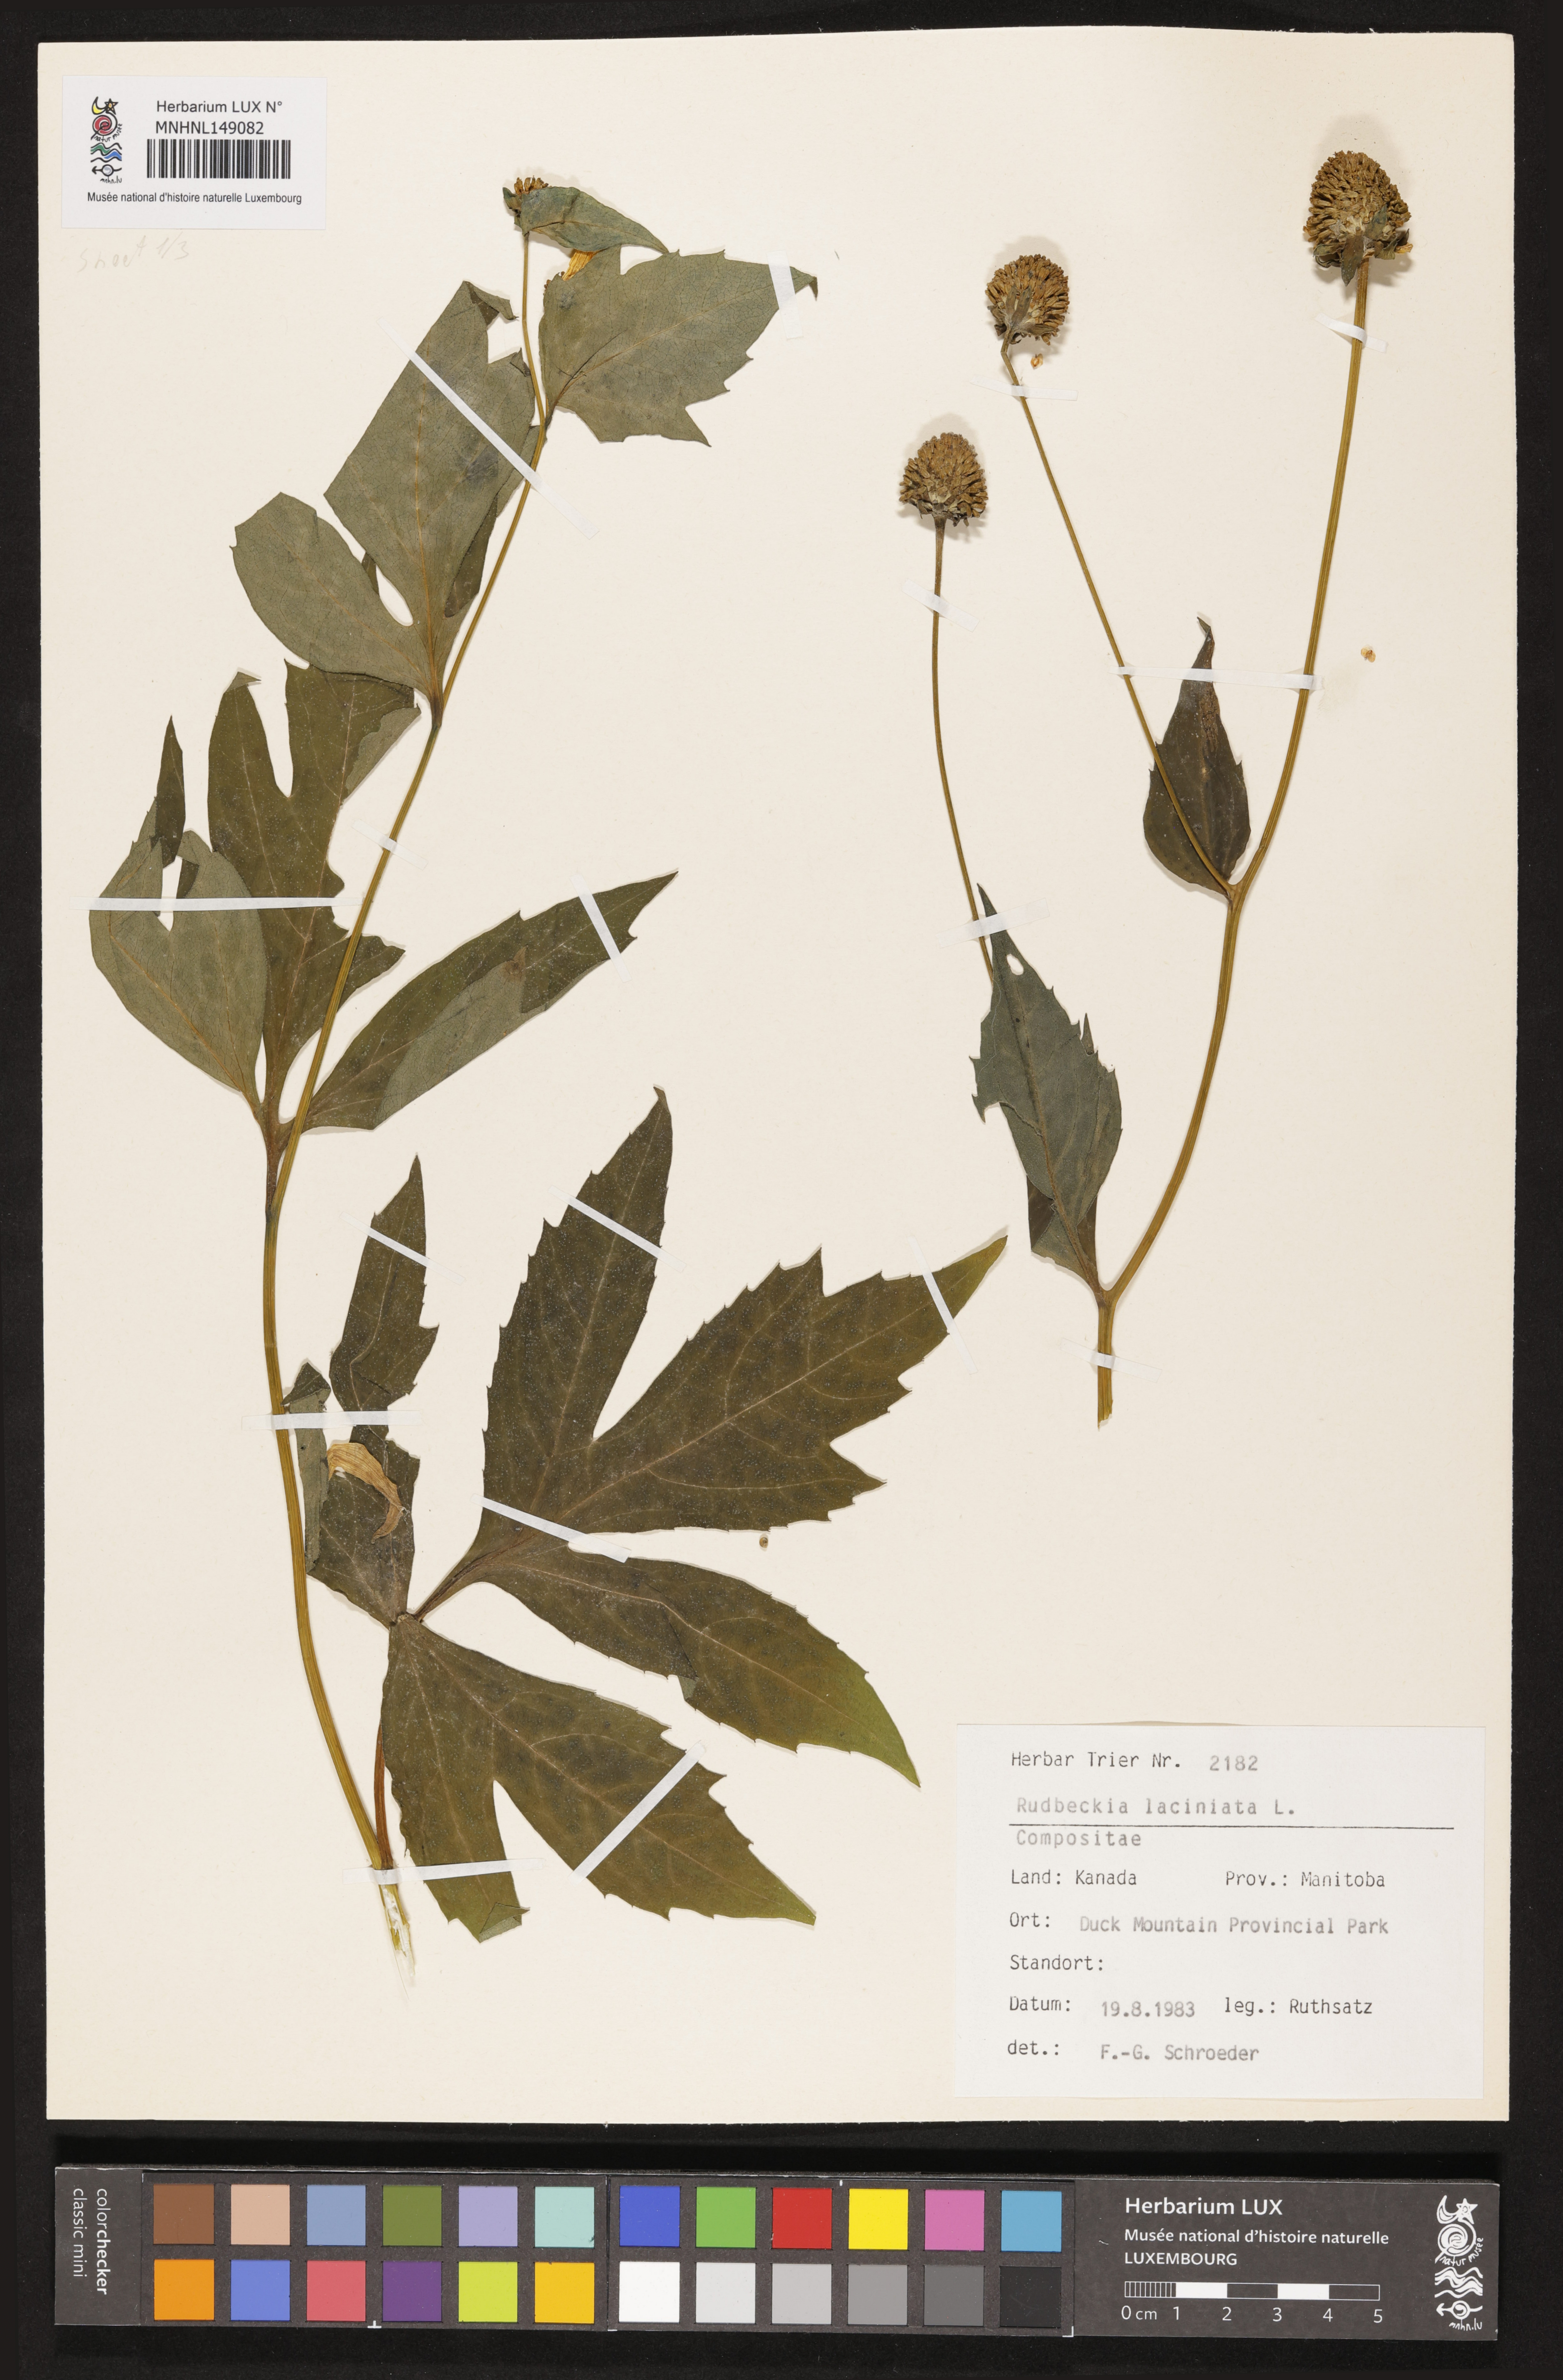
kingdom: Plantae
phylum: Tracheophyta
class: Magnoliopsida
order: Asterales
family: Asteraceae
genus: Rudbeckia
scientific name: Rudbeckia laciniata
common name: Coneflower
